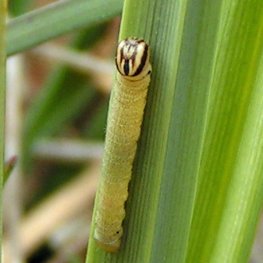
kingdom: Animalia
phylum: Arthropoda
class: Insecta
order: Lepidoptera
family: Hesperiidae
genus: Euphyes
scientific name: Euphyes dion
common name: Dion Skipper
